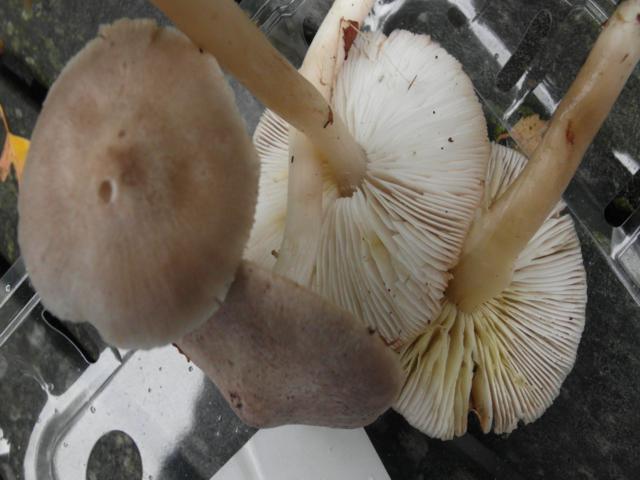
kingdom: Fungi
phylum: Basidiomycota
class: Agaricomycetes
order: Agaricales
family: Tricholomataceae
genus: Tricholoma
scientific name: Tricholoma scalpturatum
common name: gulplettet ridderhat
